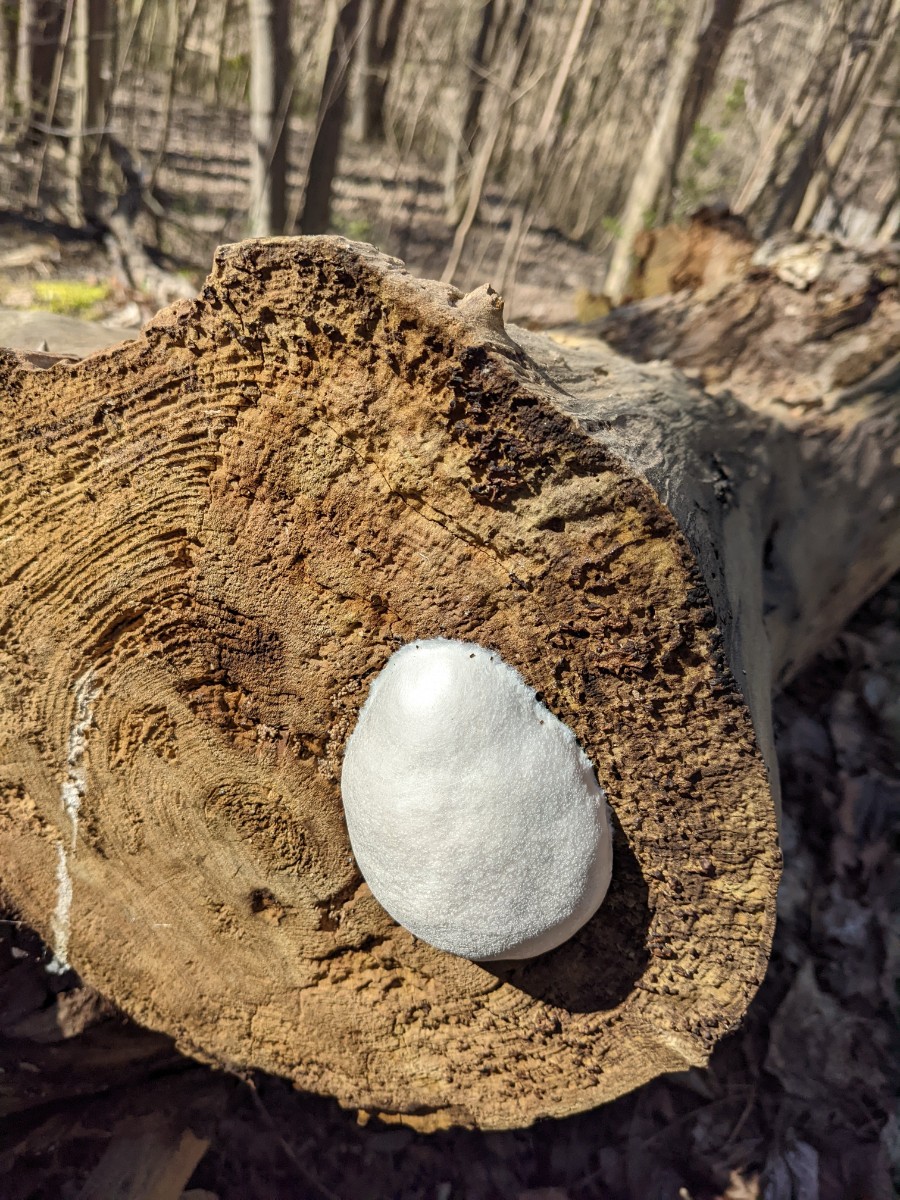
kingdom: Protozoa
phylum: Mycetozoa
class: Myxomycetes
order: Cribrariales
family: Tubiferaceae
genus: Reticularia
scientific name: Reticularia lycoperdon
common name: skinnende støvpude
